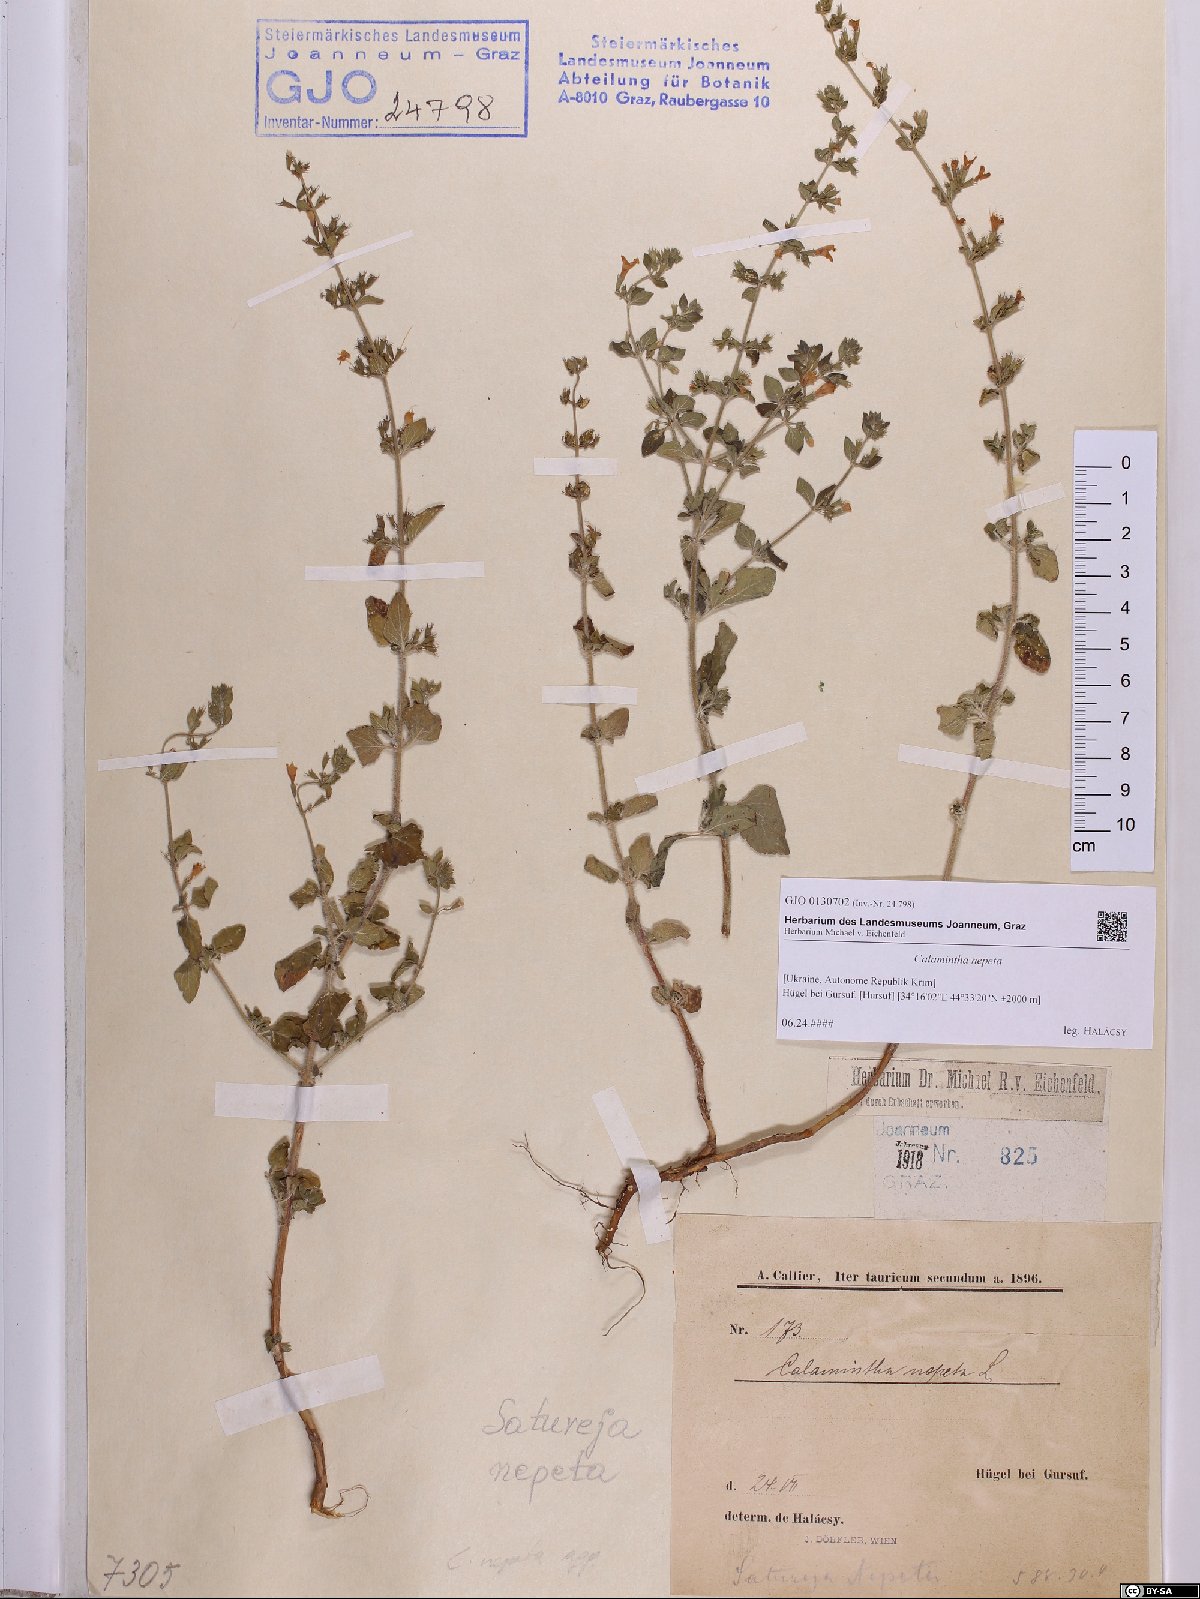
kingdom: Plantae
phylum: Tracheophyta
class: Magnoliopsida
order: Lamiales
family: Lamiaceae
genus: Clinopodium
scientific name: Clinopodium nepeta
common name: Lesser calamint
